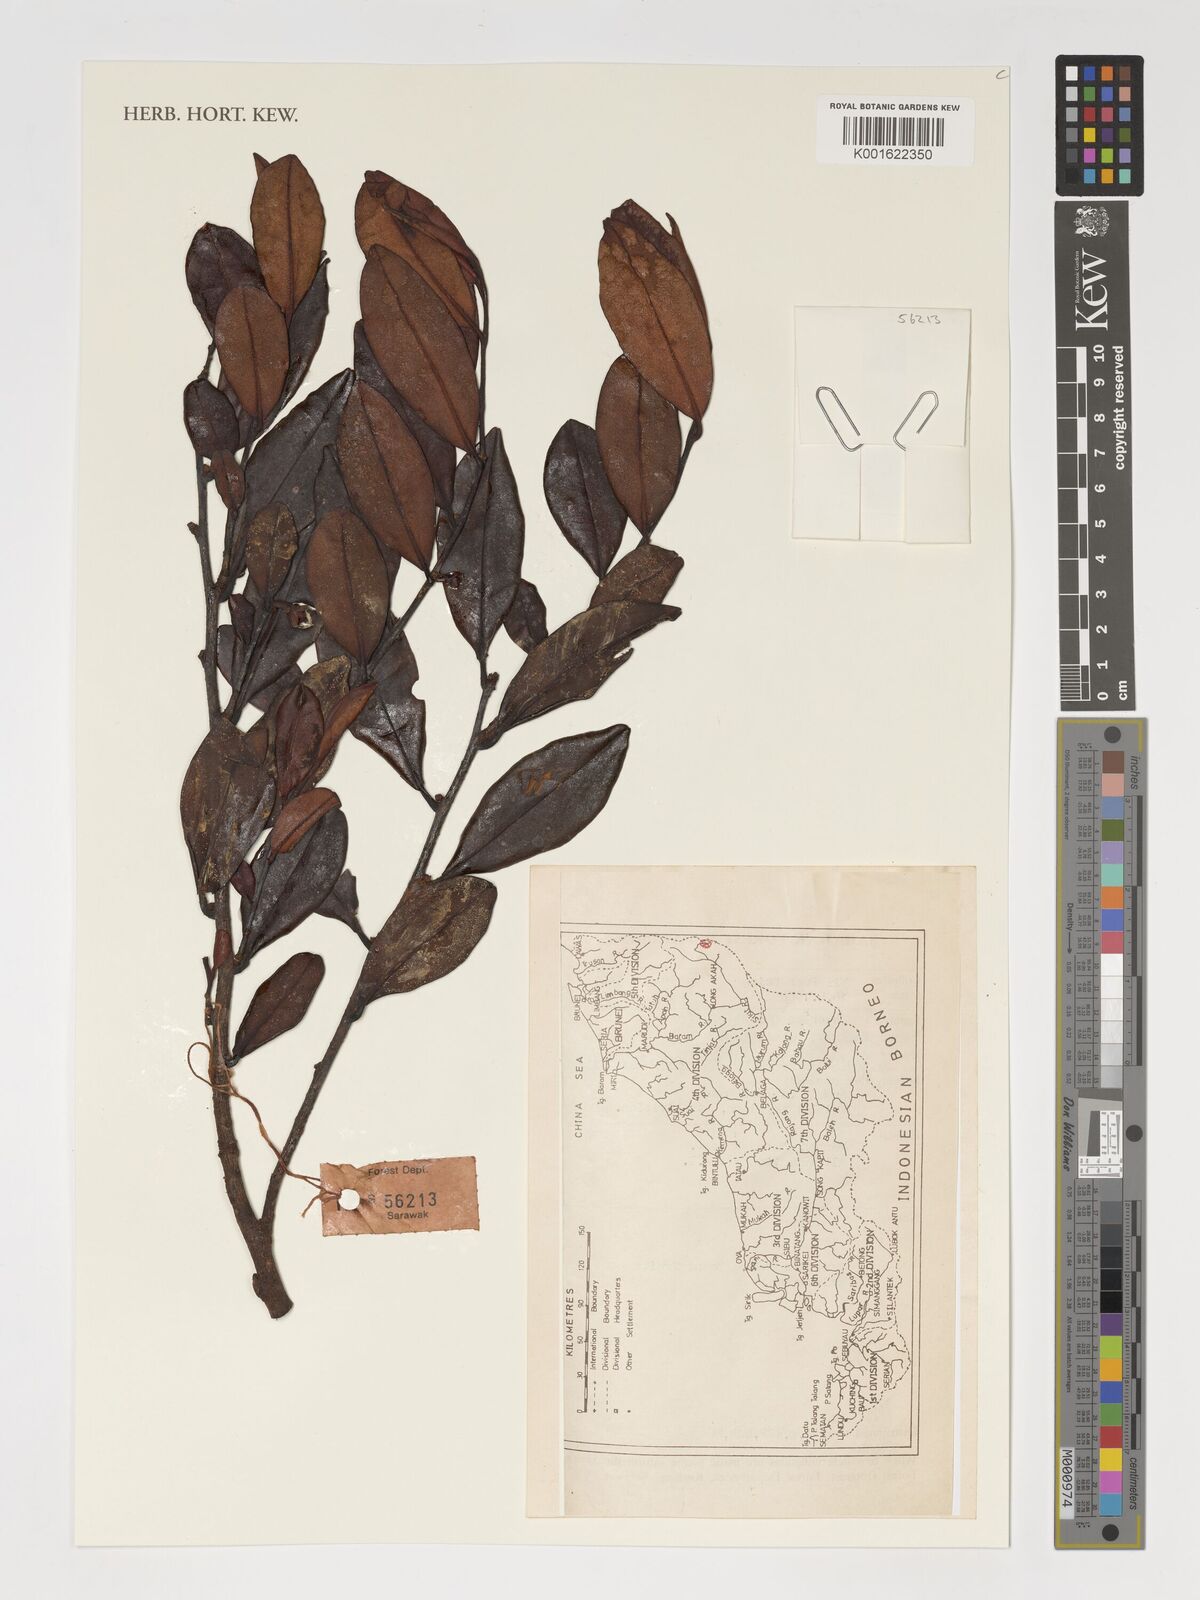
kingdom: Plantae
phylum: Tracheophyta
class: Magnoliopsida
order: Ericales
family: Pentaphylacaceae
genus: Adinandra
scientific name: Adinandra
